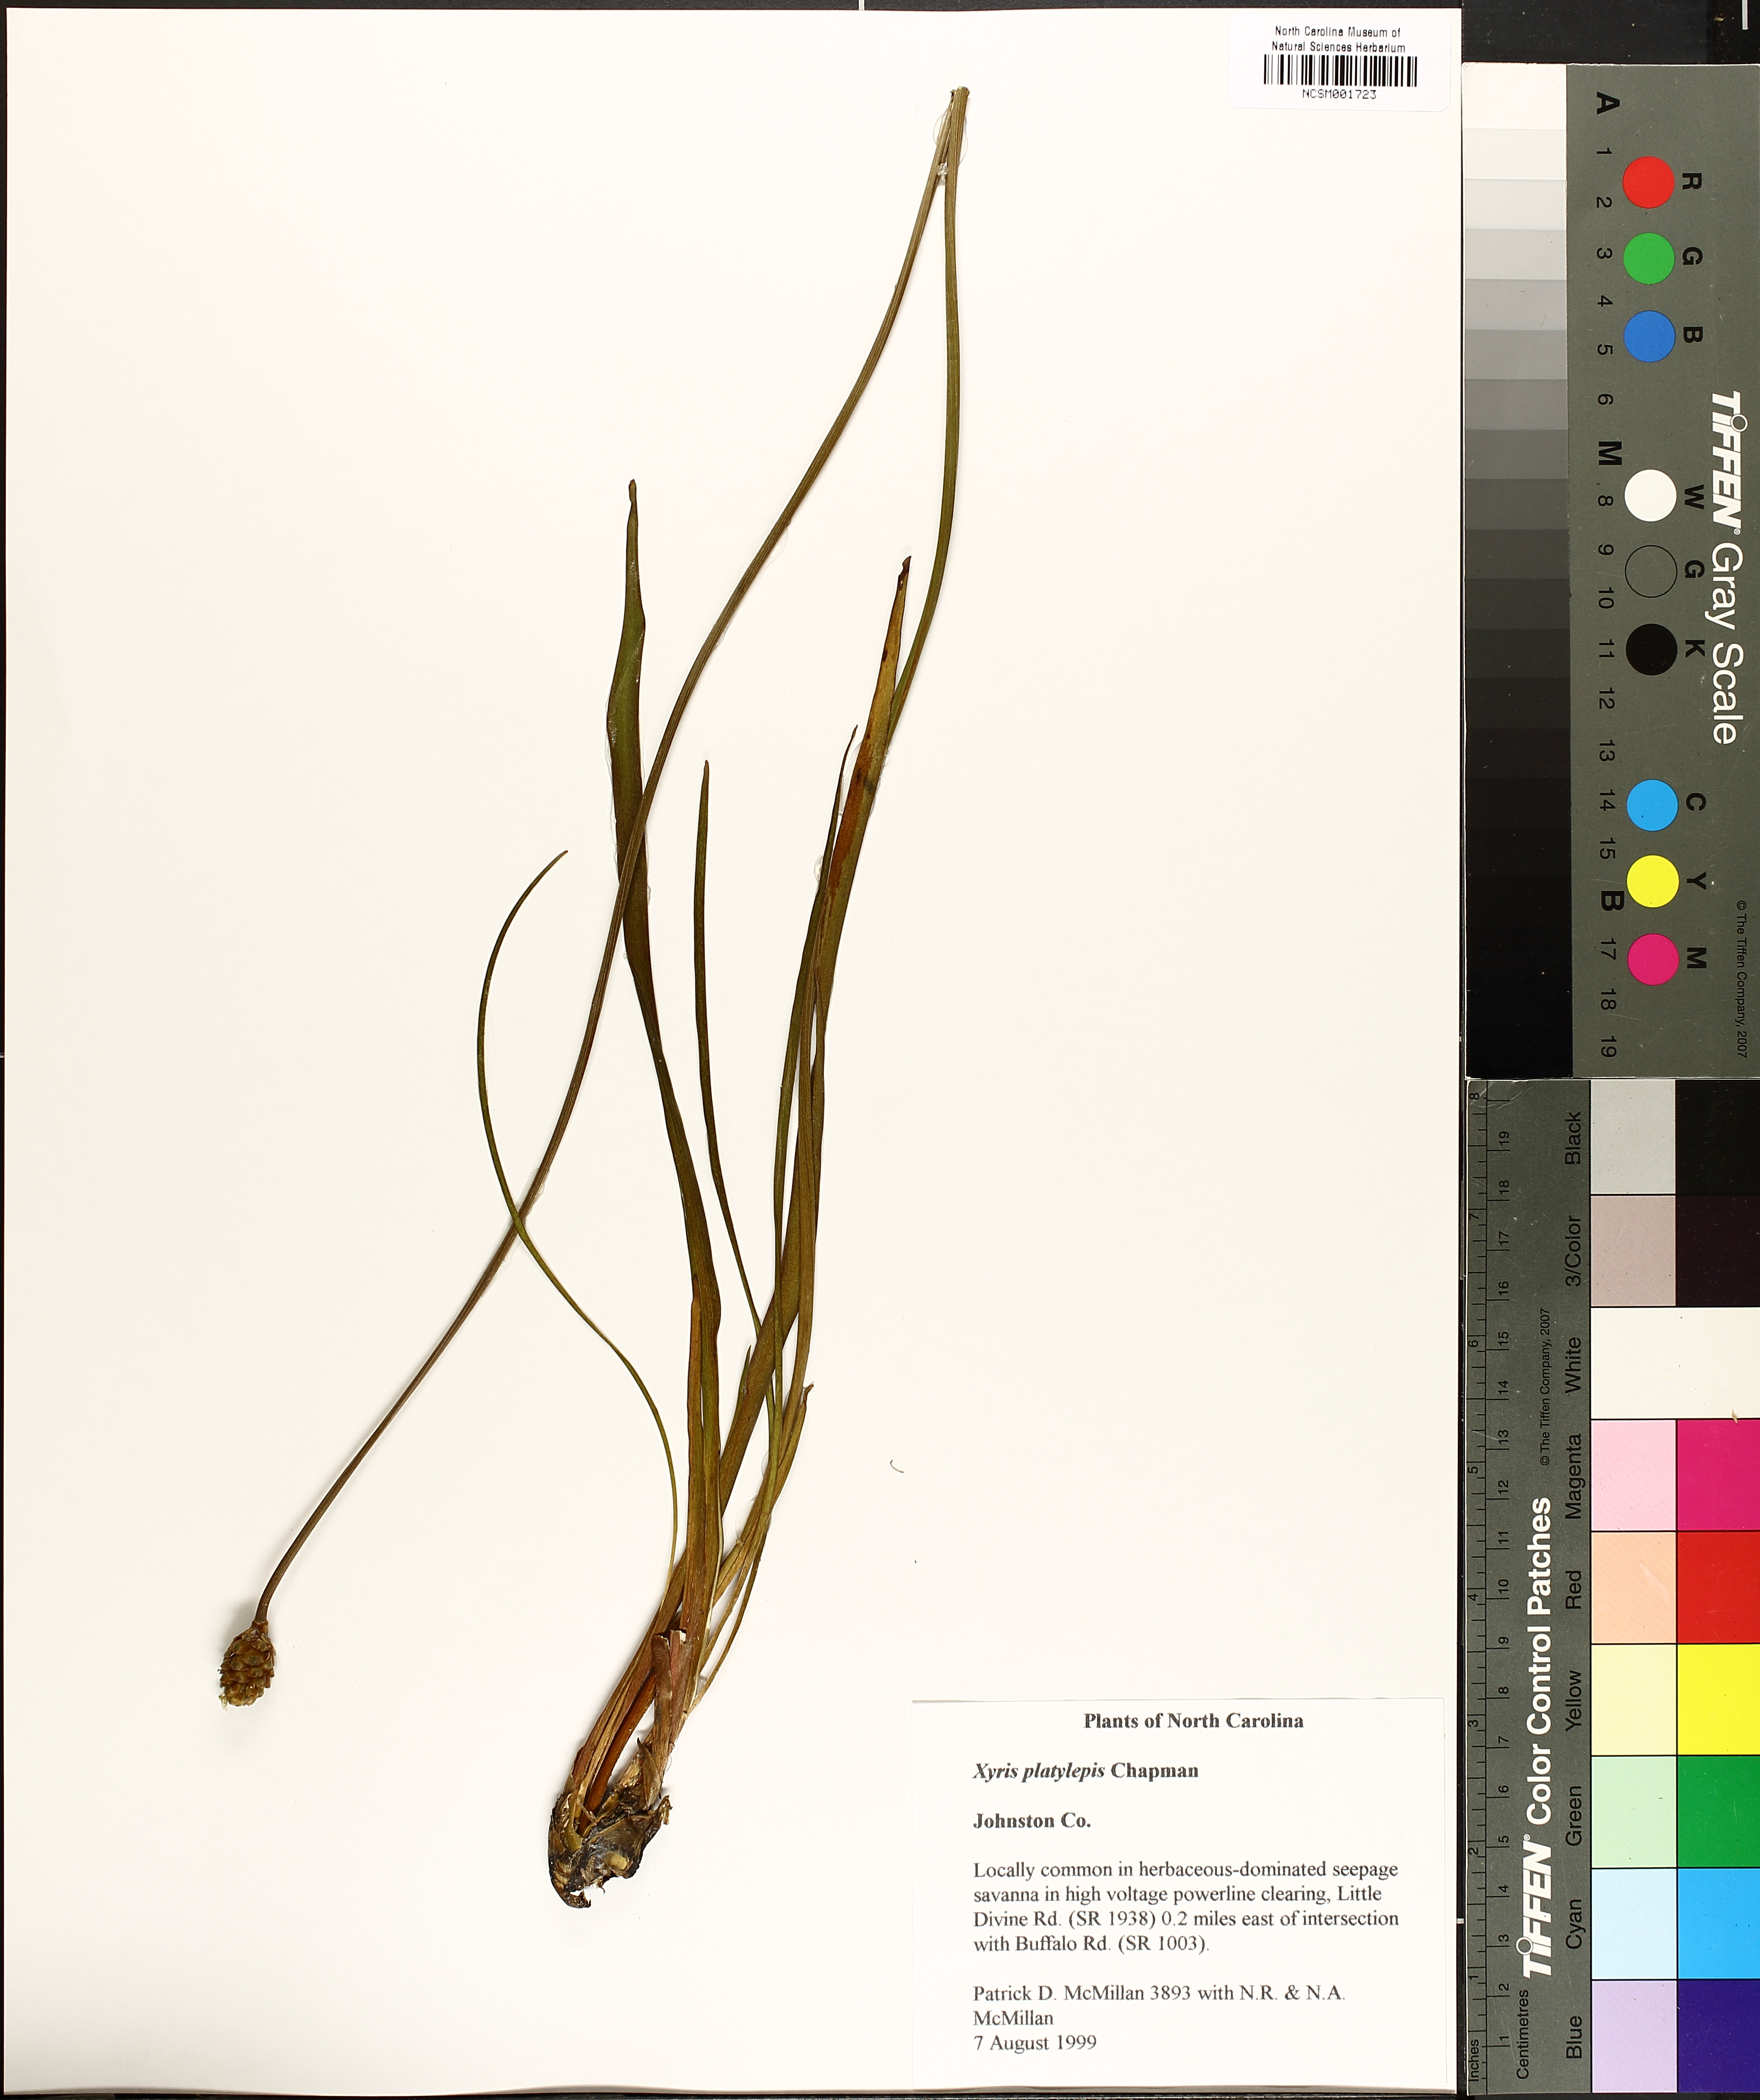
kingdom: Plantae
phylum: Tracheophyta
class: Liliopsida
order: Poales
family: Xyridaceae
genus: Xyris
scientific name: Xyris platylepis
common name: Tall yelloweyed grass
